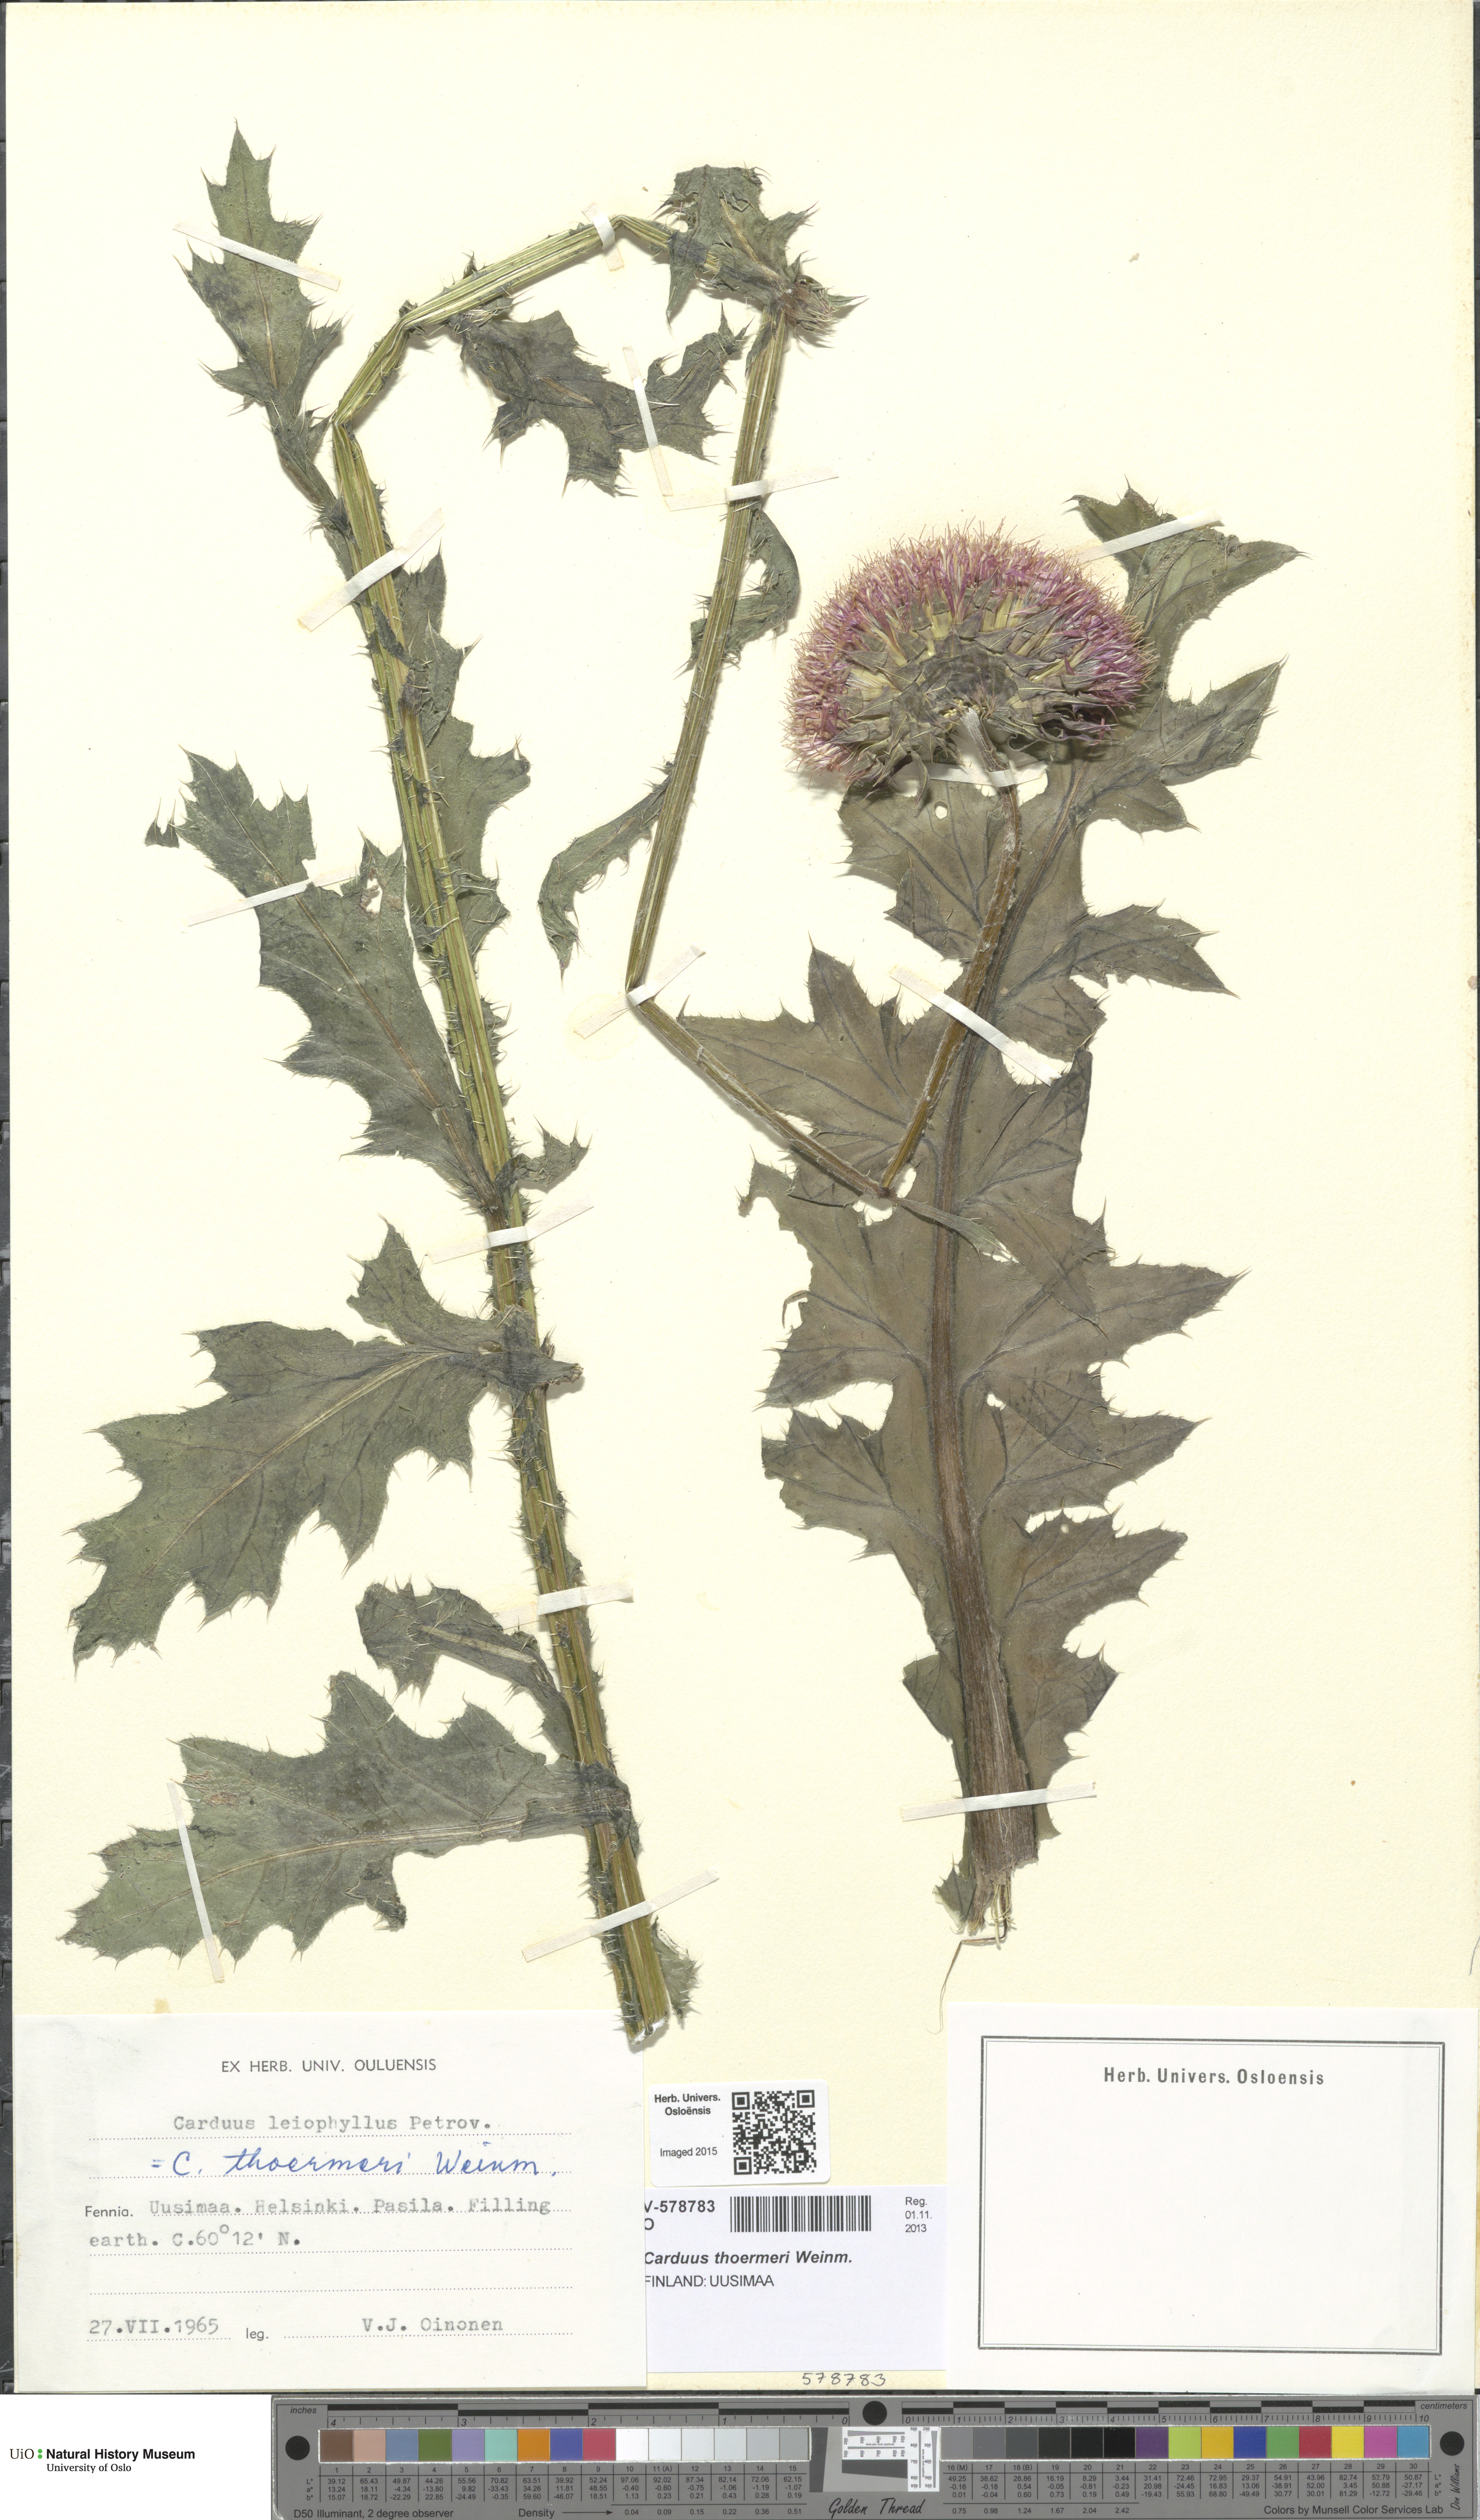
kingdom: Plantae
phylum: Tracheophyta
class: Magnoliopsida
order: Asterales
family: Asteraceae
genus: Carduus
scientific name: Carduus nutans
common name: Musk thistle
